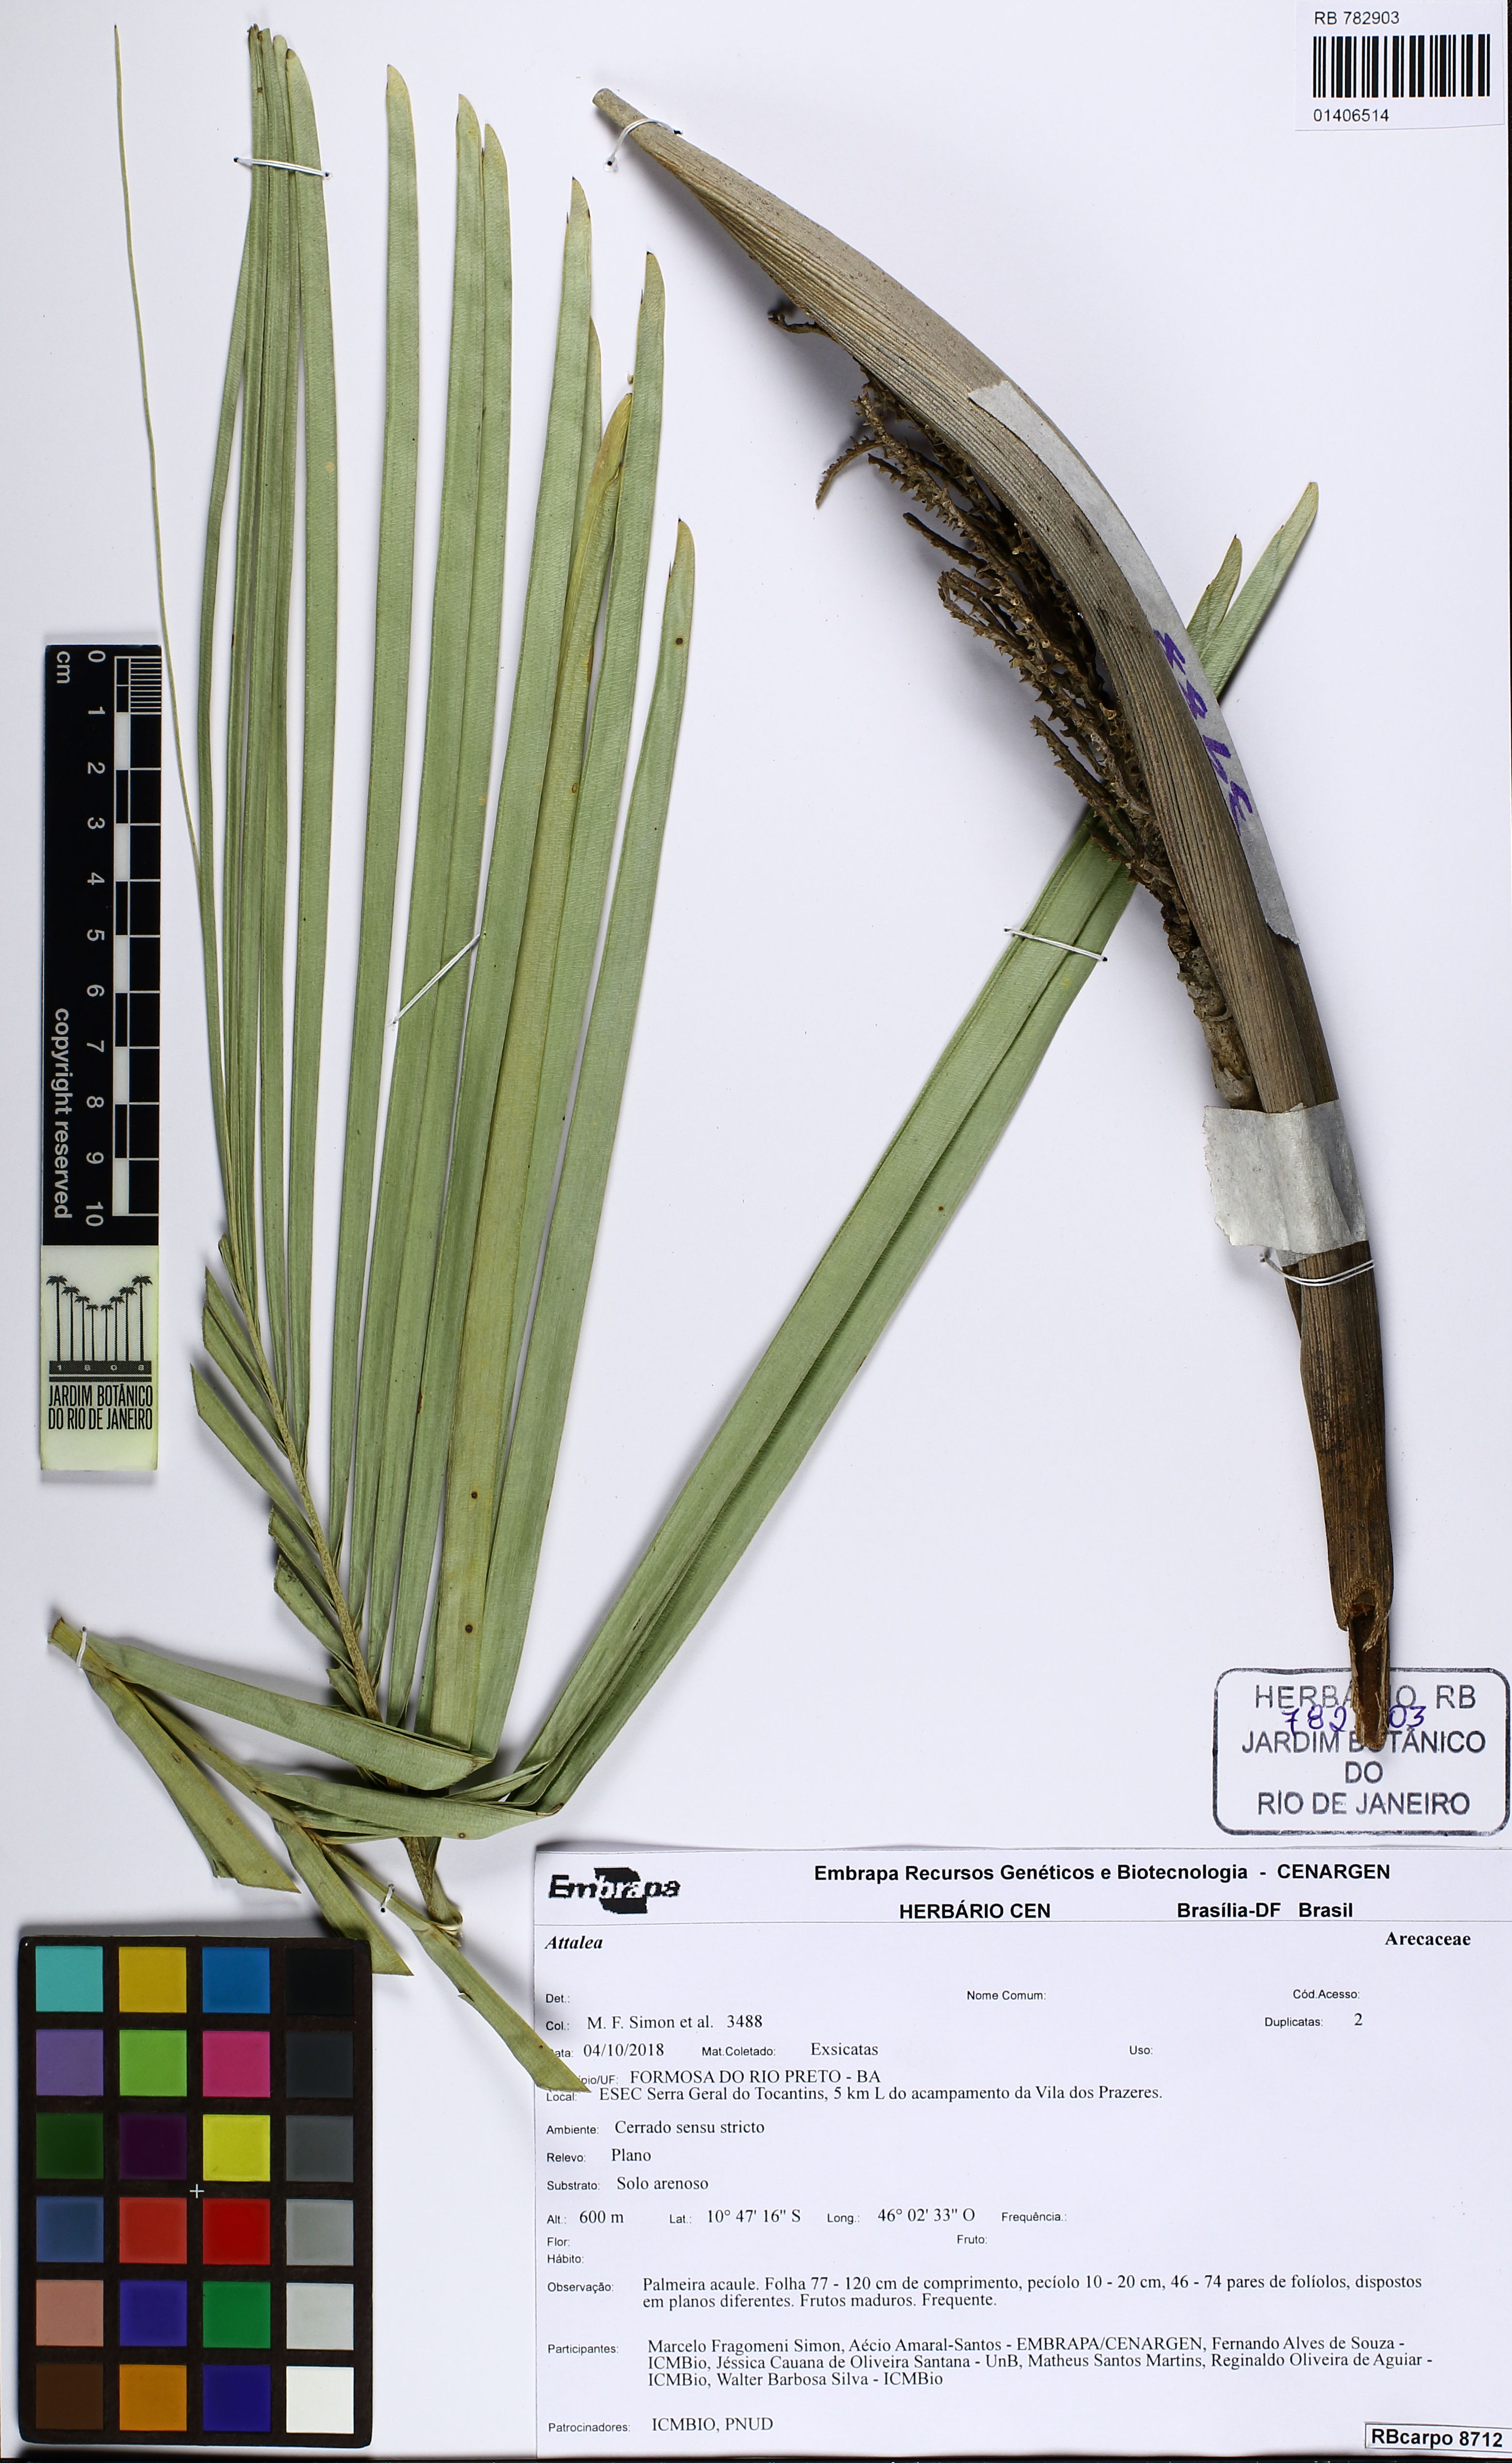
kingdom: Plantae
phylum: Tracheophyta
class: Liliopsida
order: Arecales
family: Arecaceae
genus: Attalea
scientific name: Attalea
